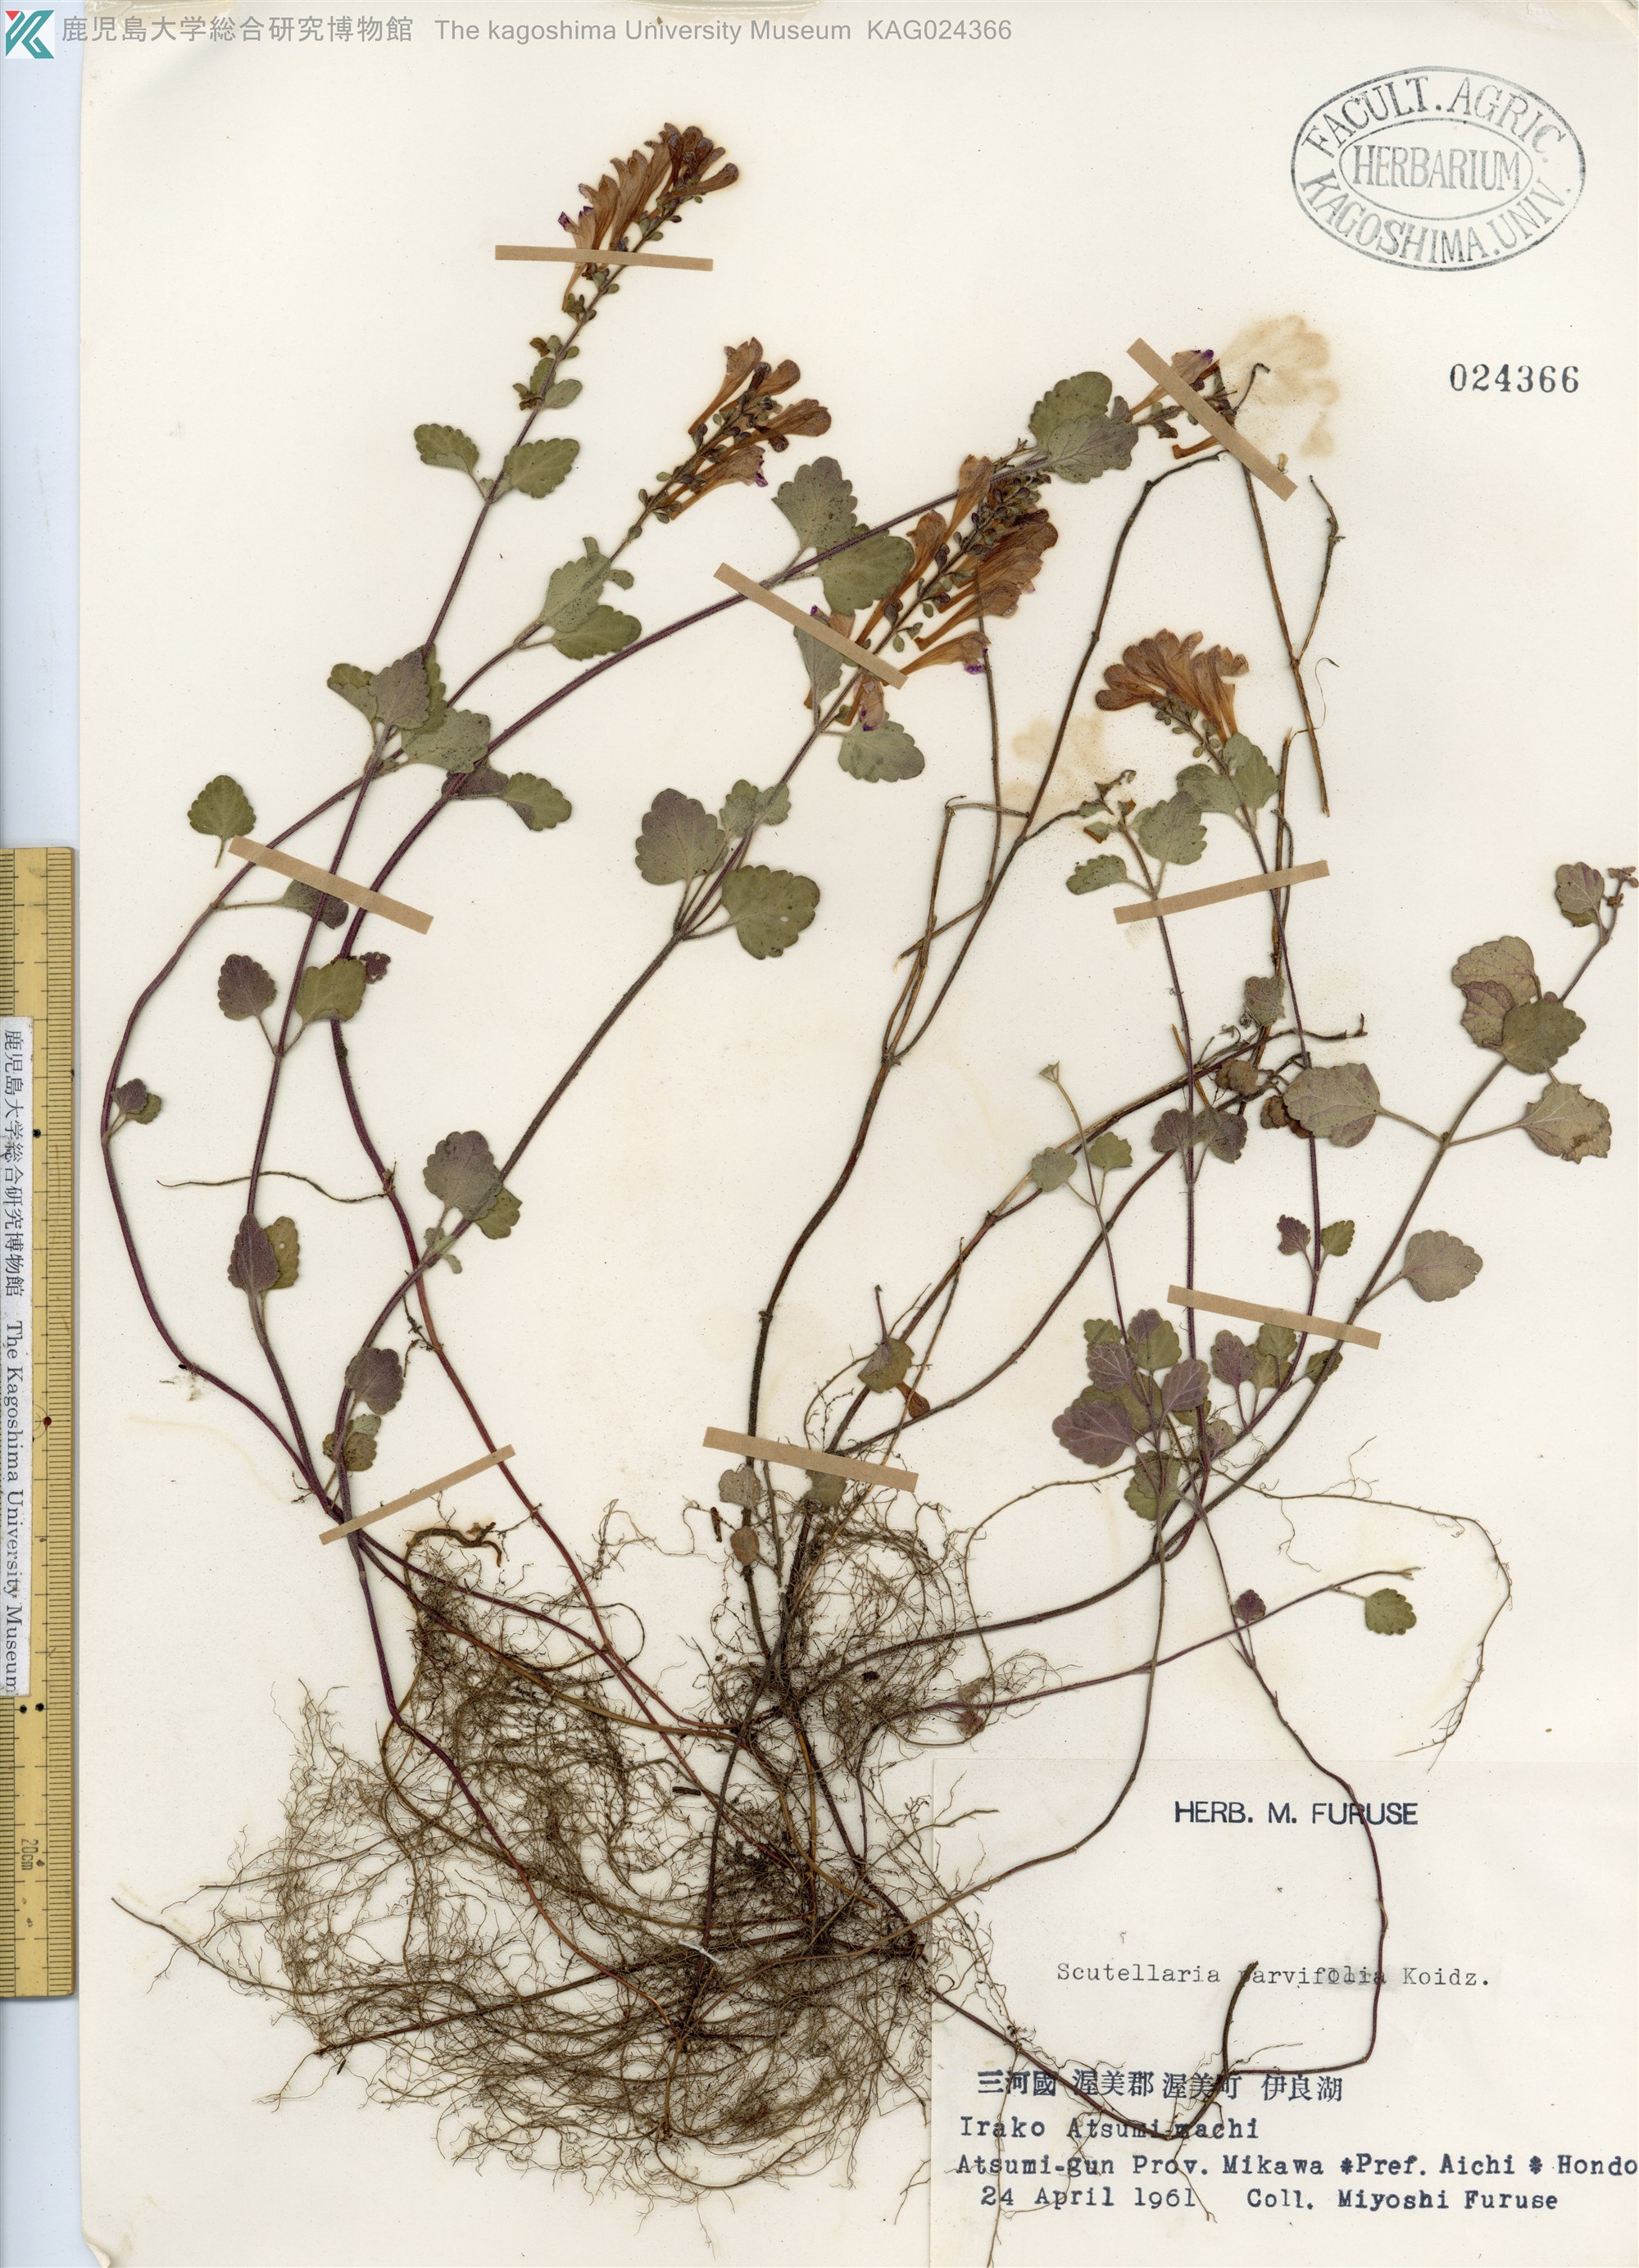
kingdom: Plantae
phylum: Tracheophyta
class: Magnoliopsida
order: Lamiales
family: Lamiaceae
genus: Scutellaria
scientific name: Scutellaria indica
